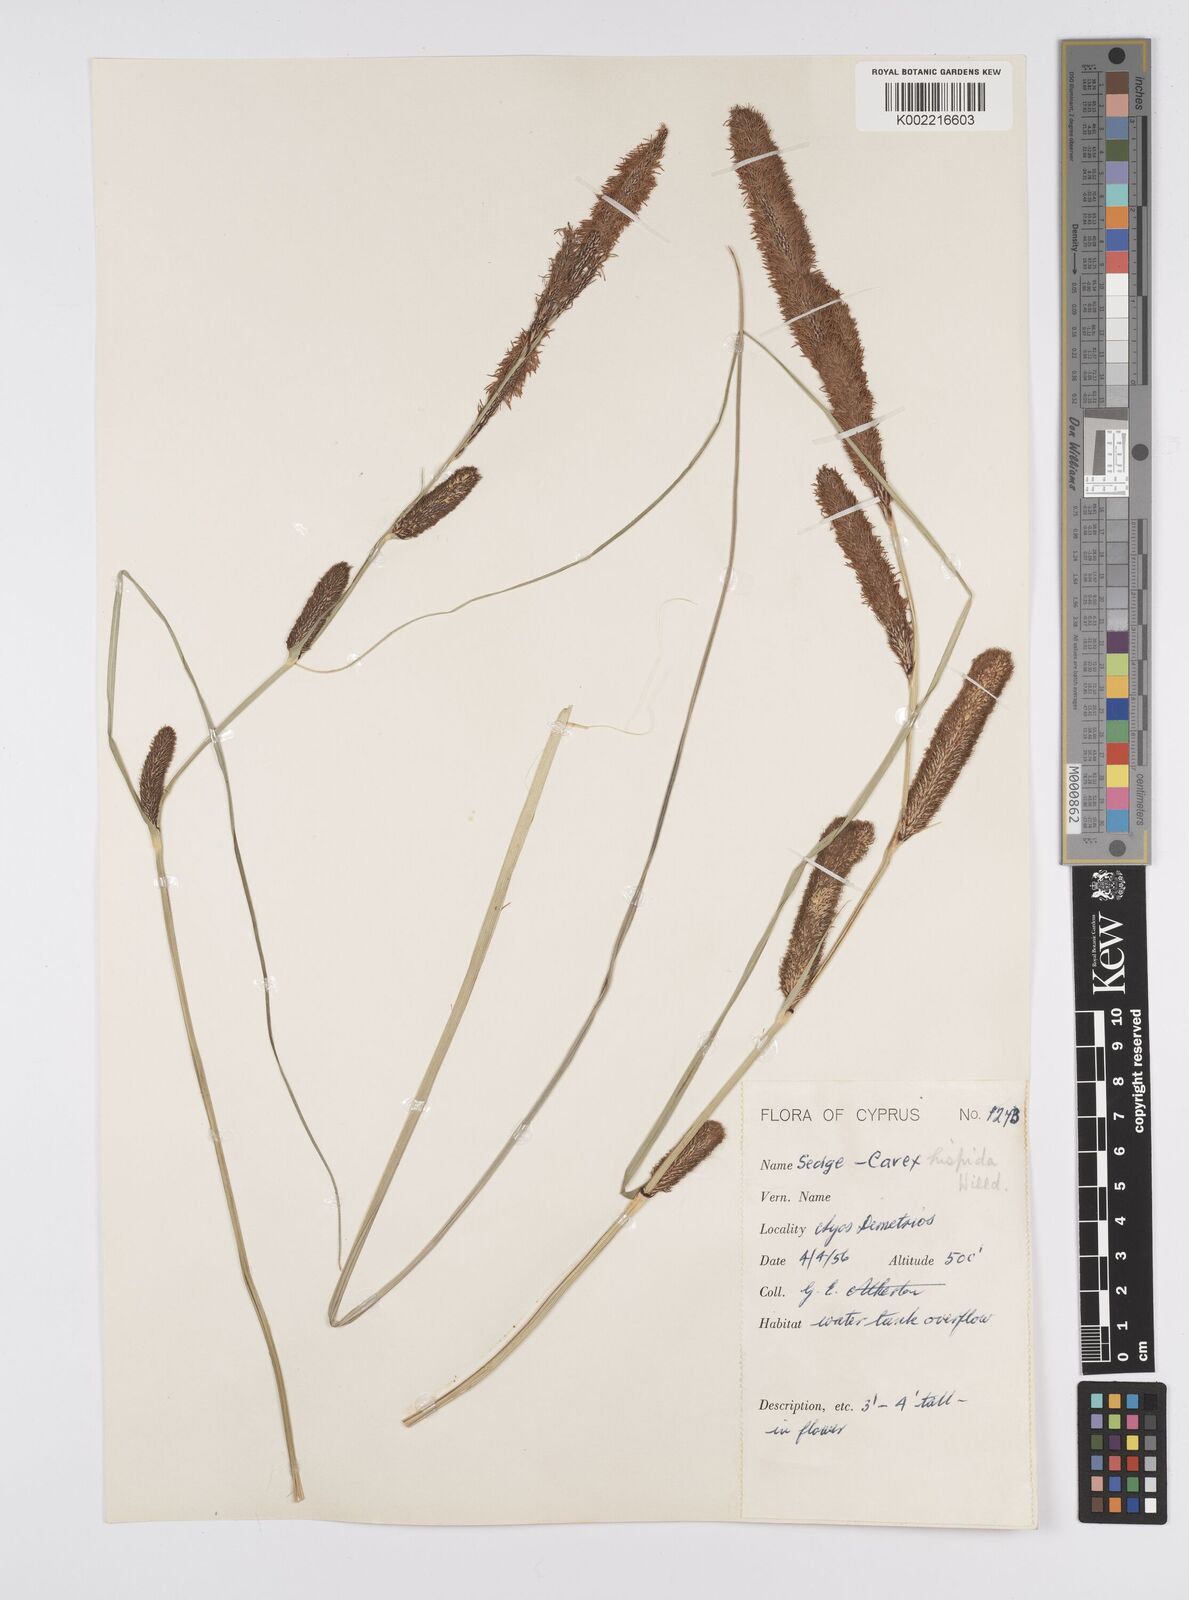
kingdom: Plantae
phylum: Tracheophyta
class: Liliopsida
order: Poales
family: Cyperaceae
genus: Carex
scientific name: Carex hispida
